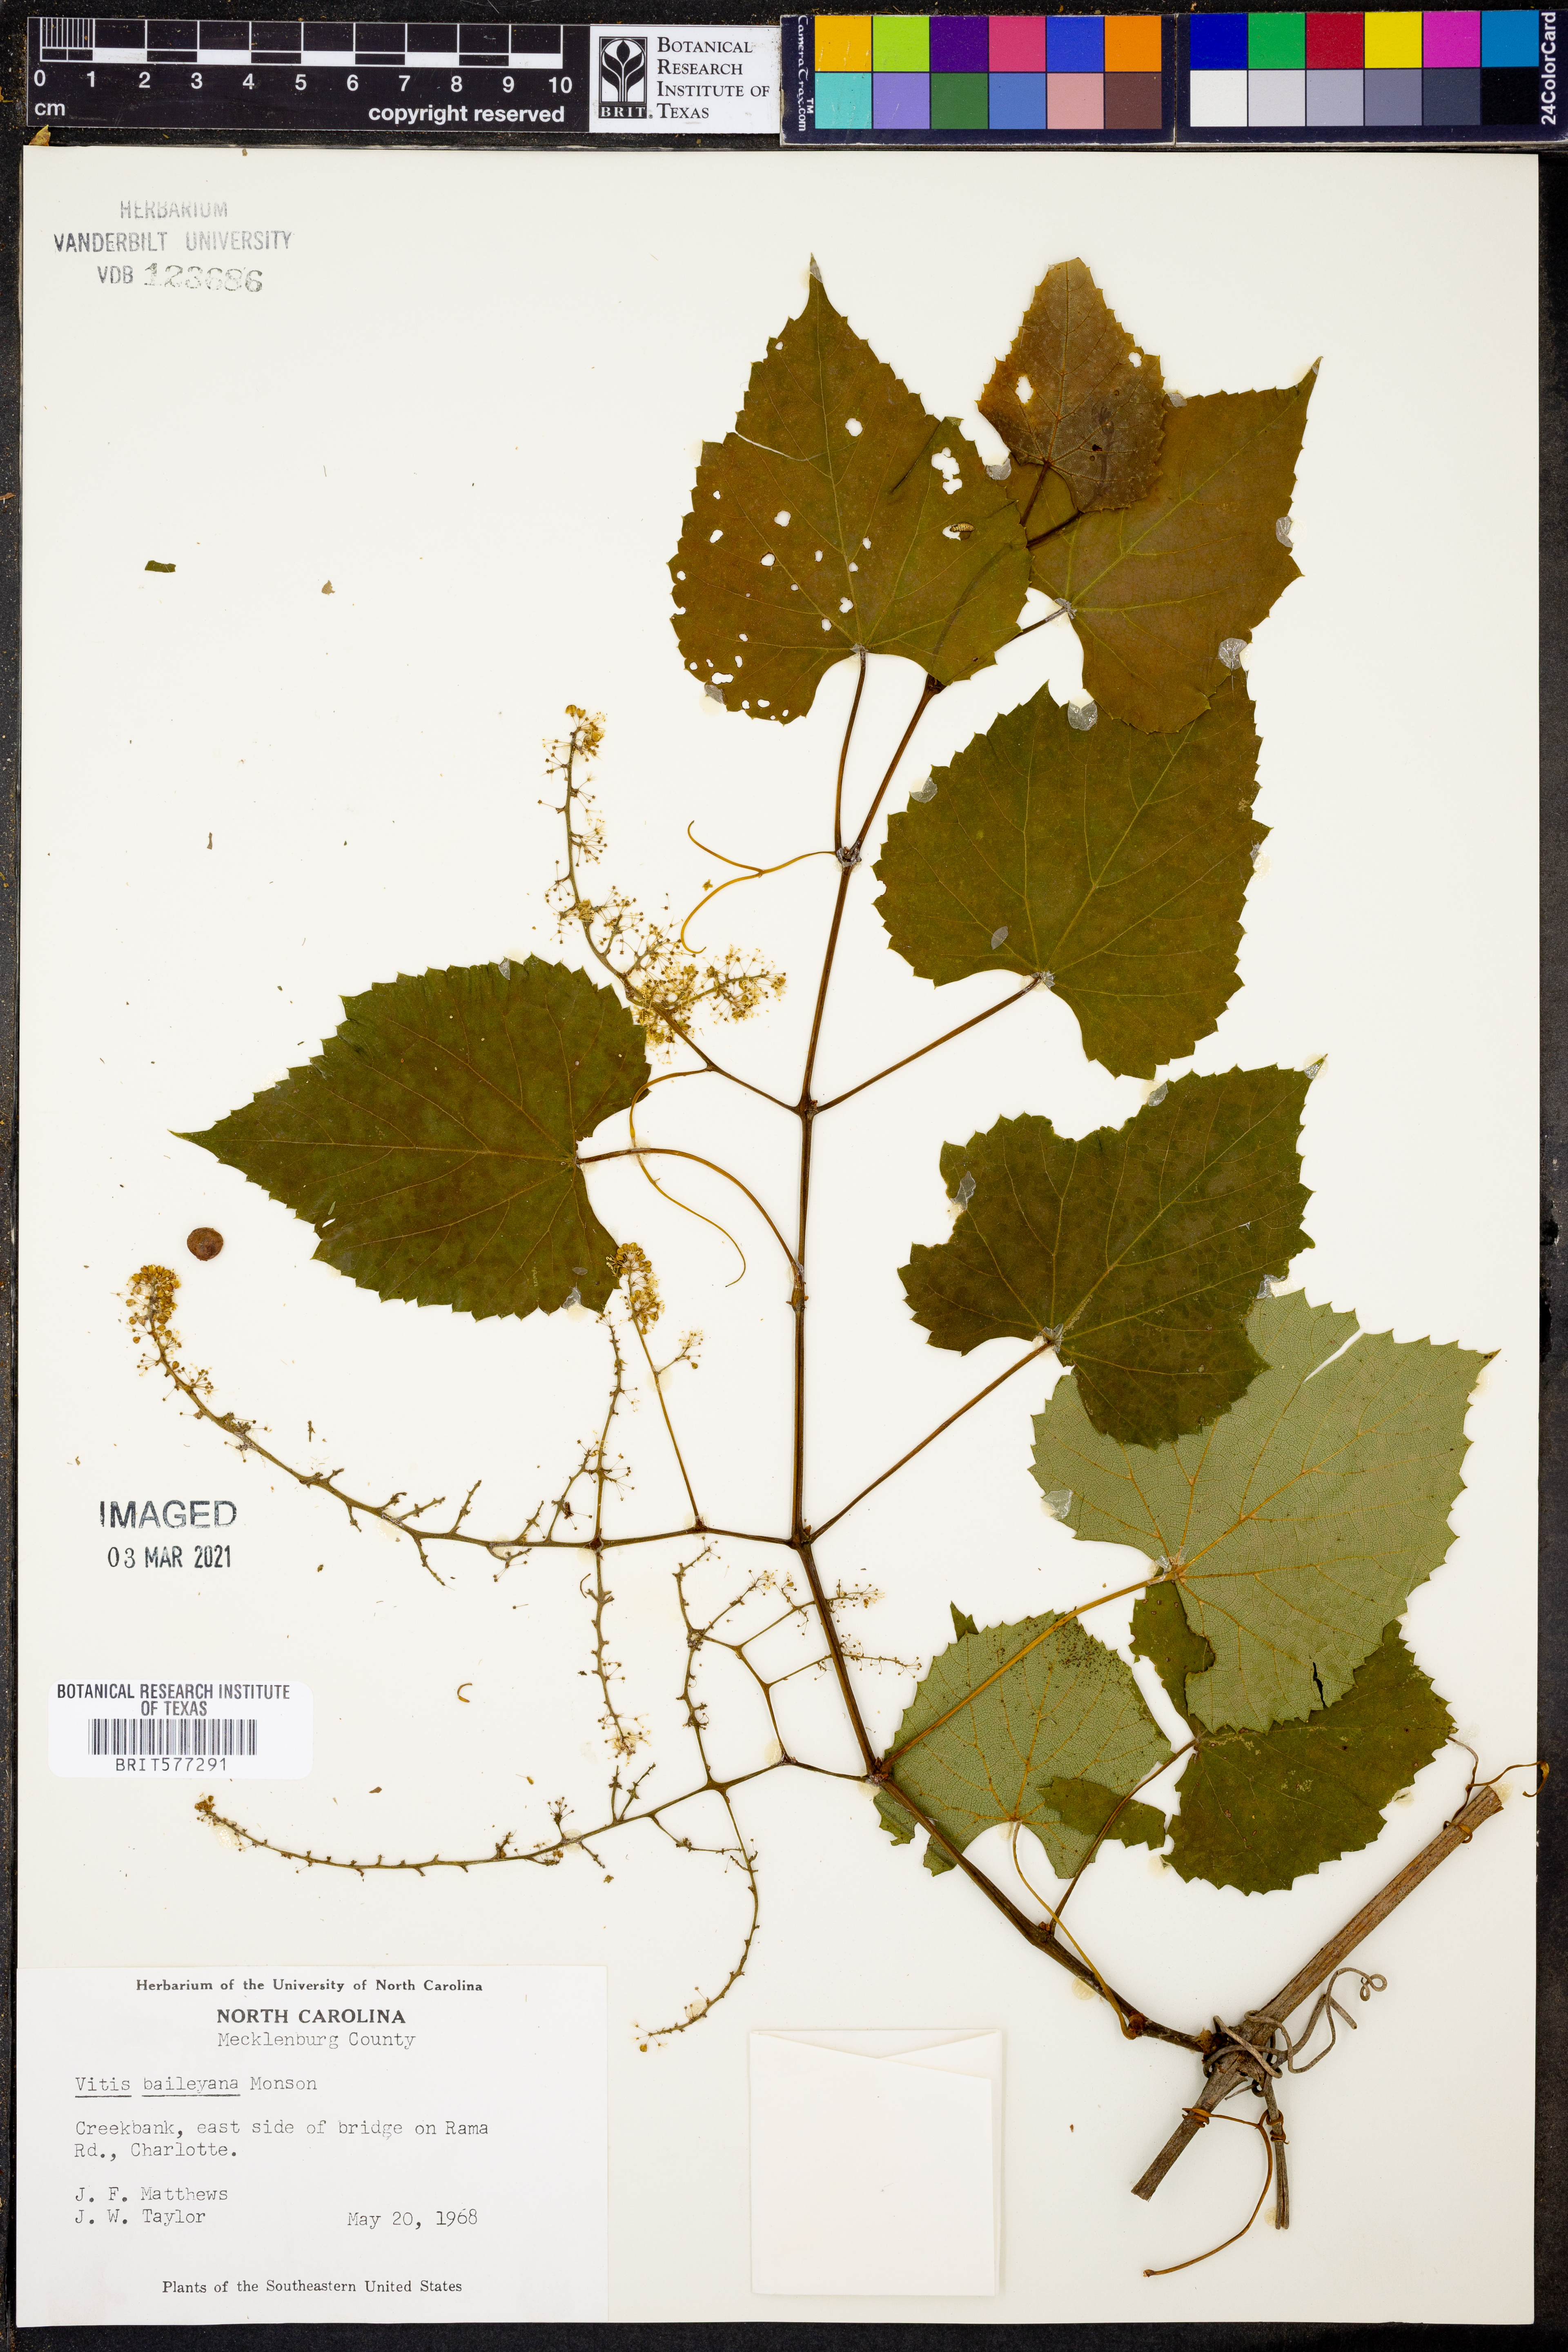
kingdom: Plantae
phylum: Tracheophyta
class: Magnoliopsida
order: Vitales
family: Vitaceae
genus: Vitis
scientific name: Vitis cinerea
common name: Ashy grape
